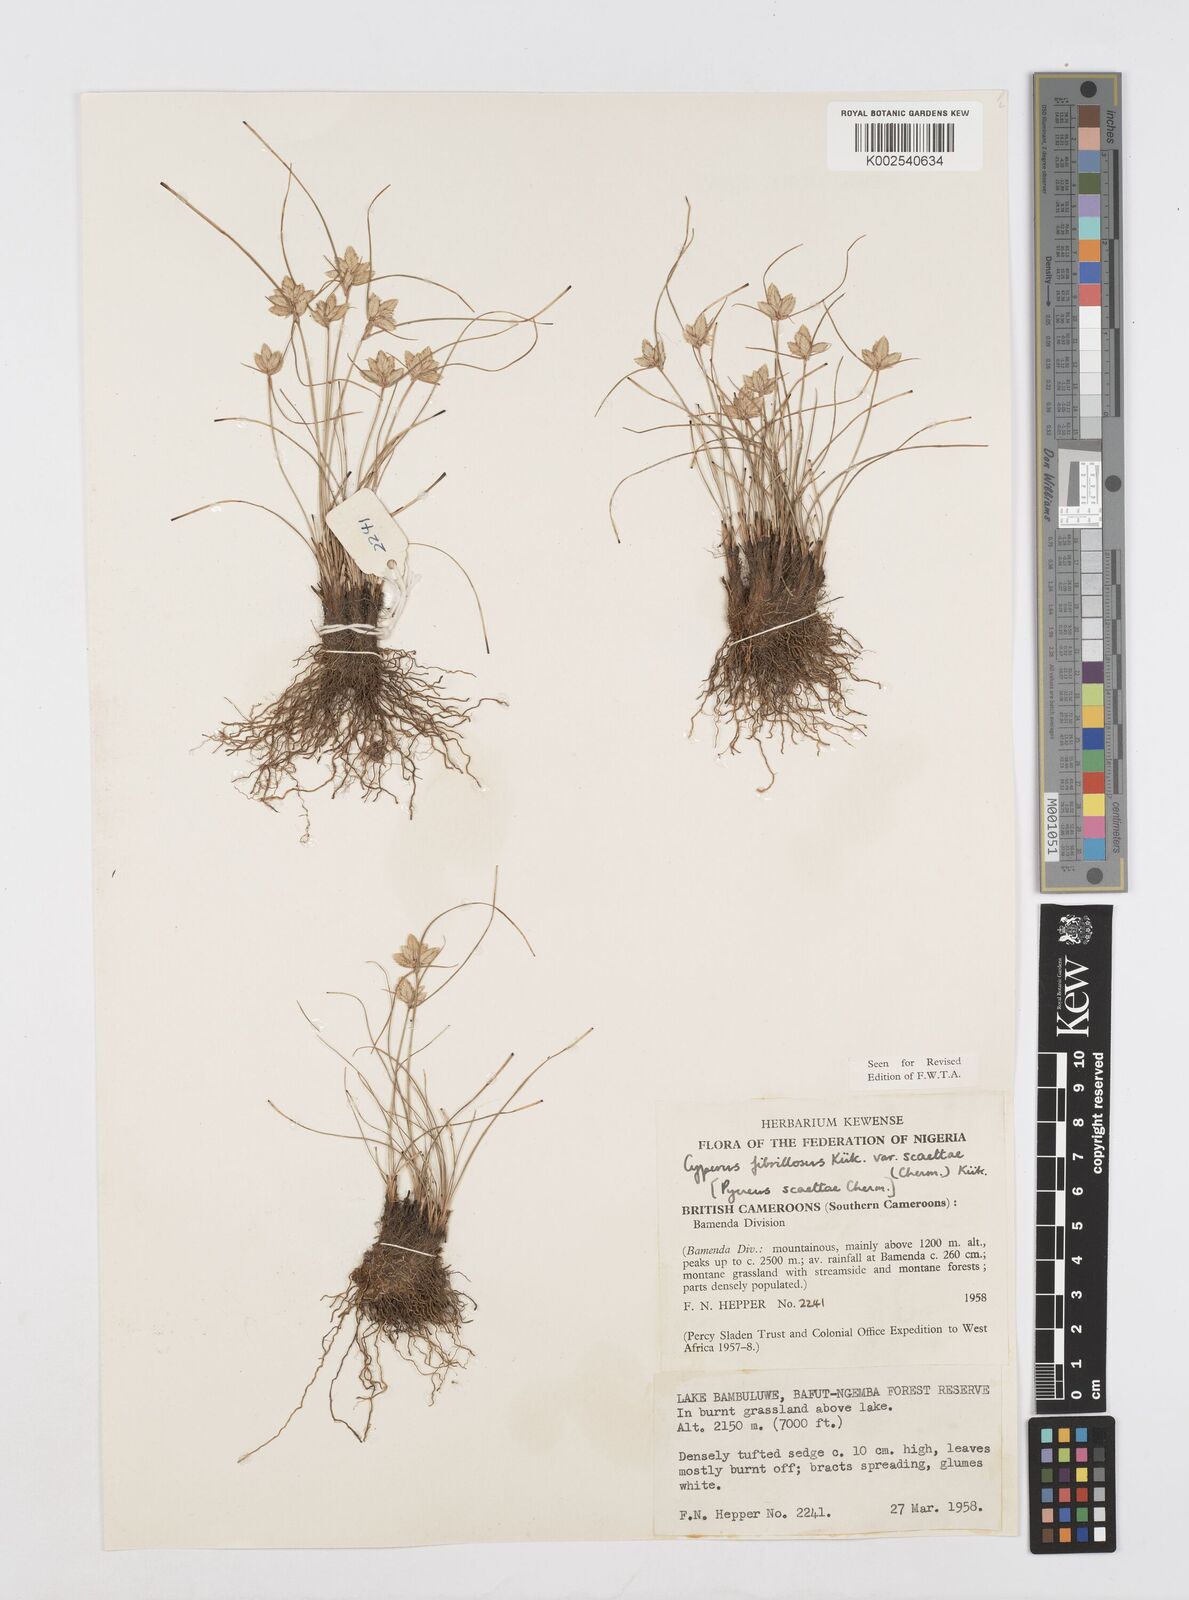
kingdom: Plantae
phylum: Tracheophyta
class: Liliopsida
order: Poales
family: Cyperaceae
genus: Cyperus
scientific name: Cyperus scaettae
